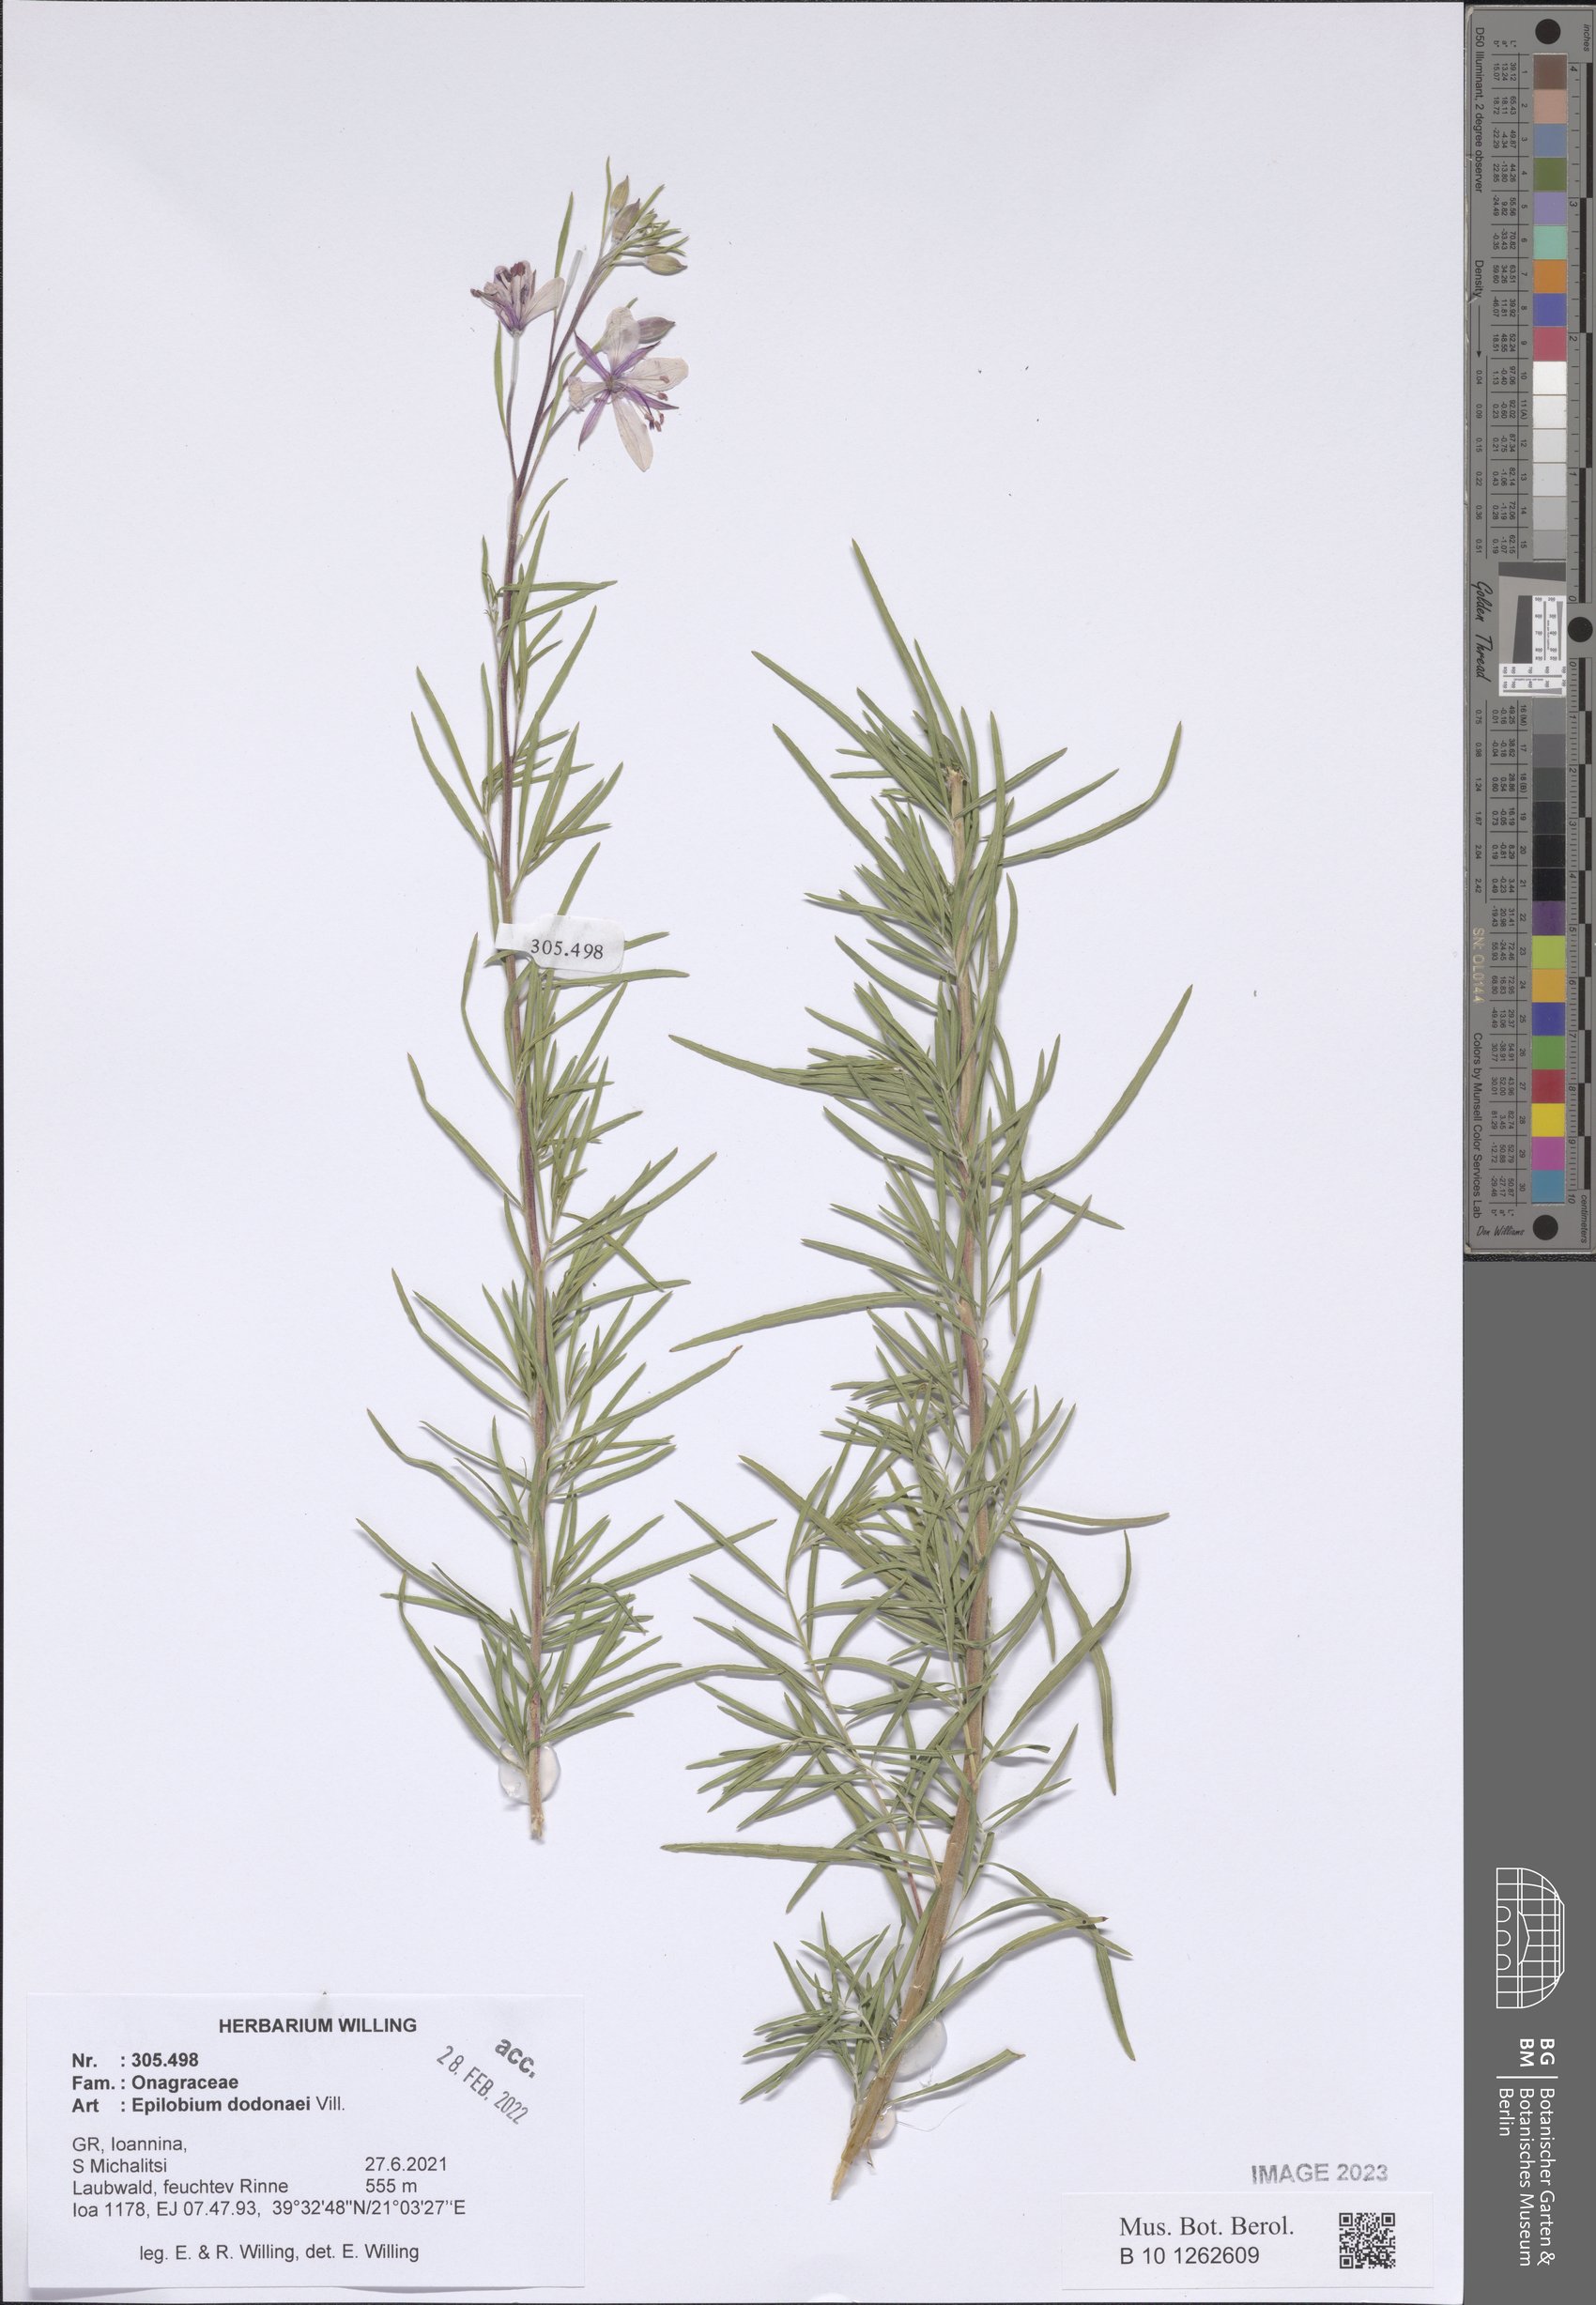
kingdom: Plantae
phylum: Tracheophyta
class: Magnoliopsida
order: Myrtales
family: Onagraceae
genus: Chamaenerion
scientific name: Chamaenerion dodonaei
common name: Rosemary-leaved willowherb
